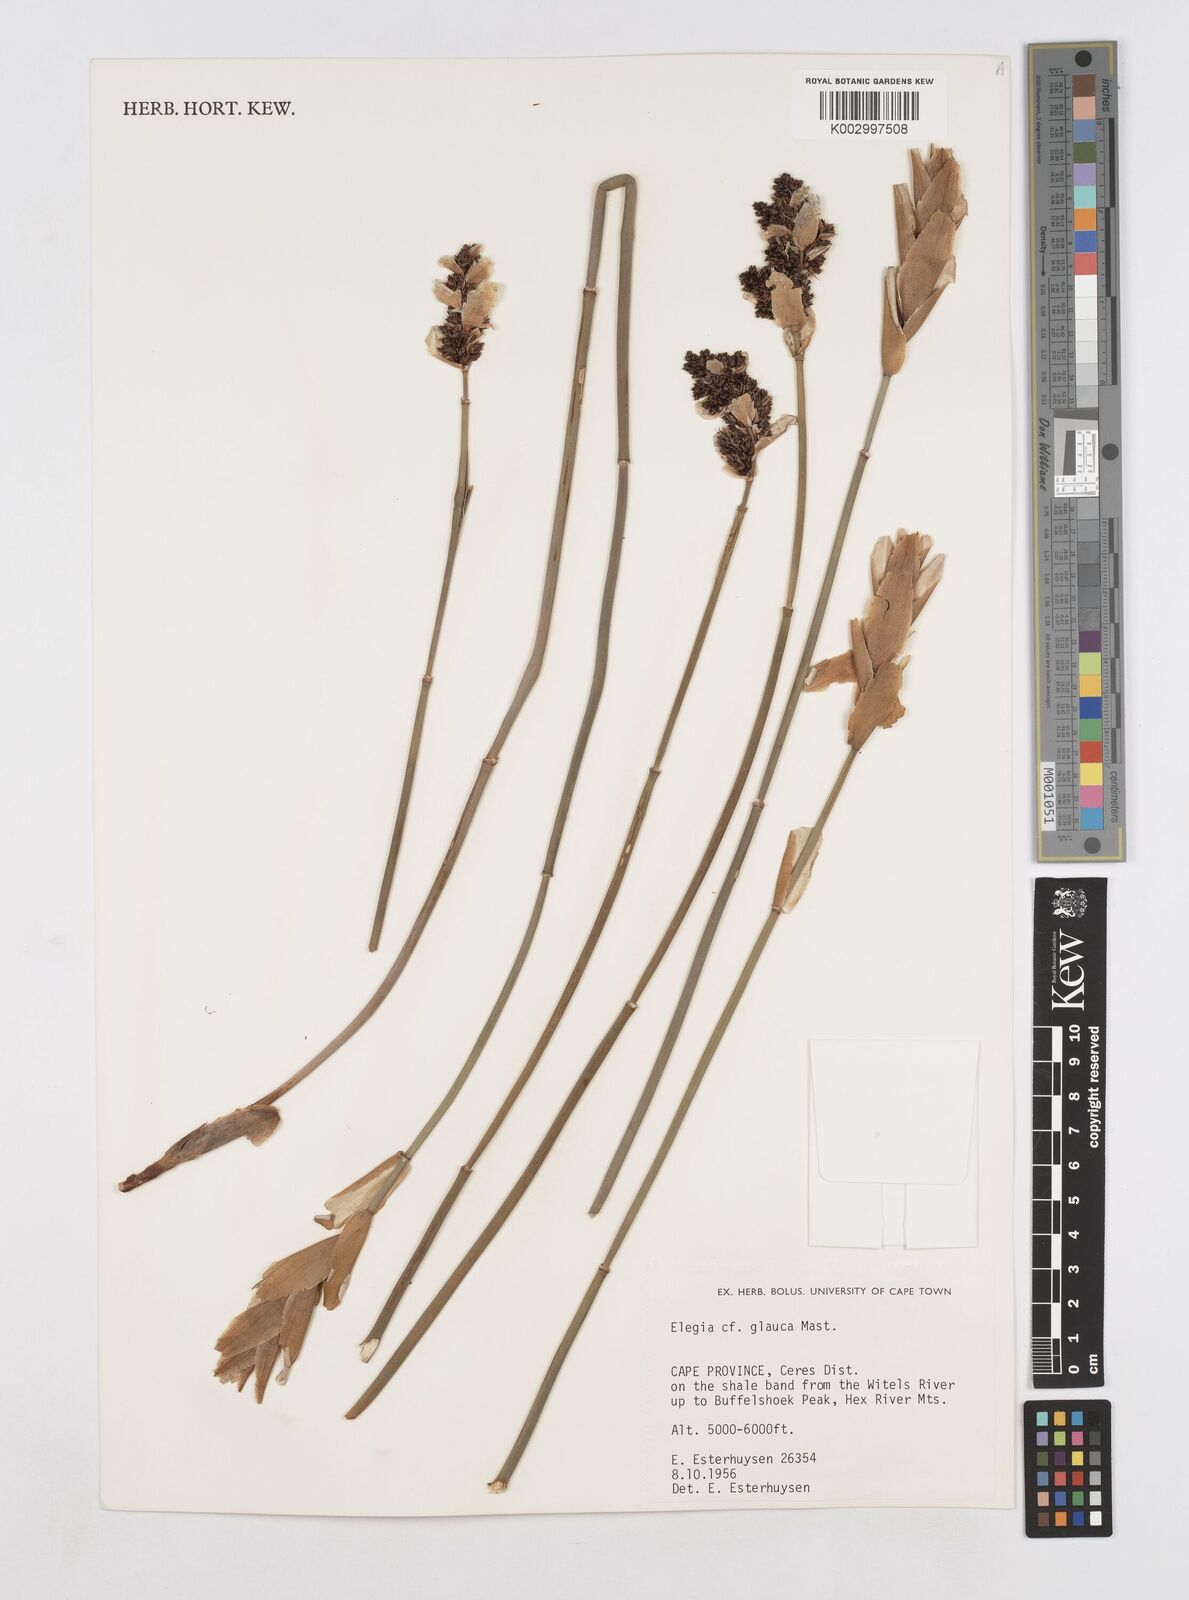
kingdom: Plantae
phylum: Tracheophyta
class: Liliopsida
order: Poales
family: Restionaceae
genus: Elegia
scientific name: Elegia asperiflora
